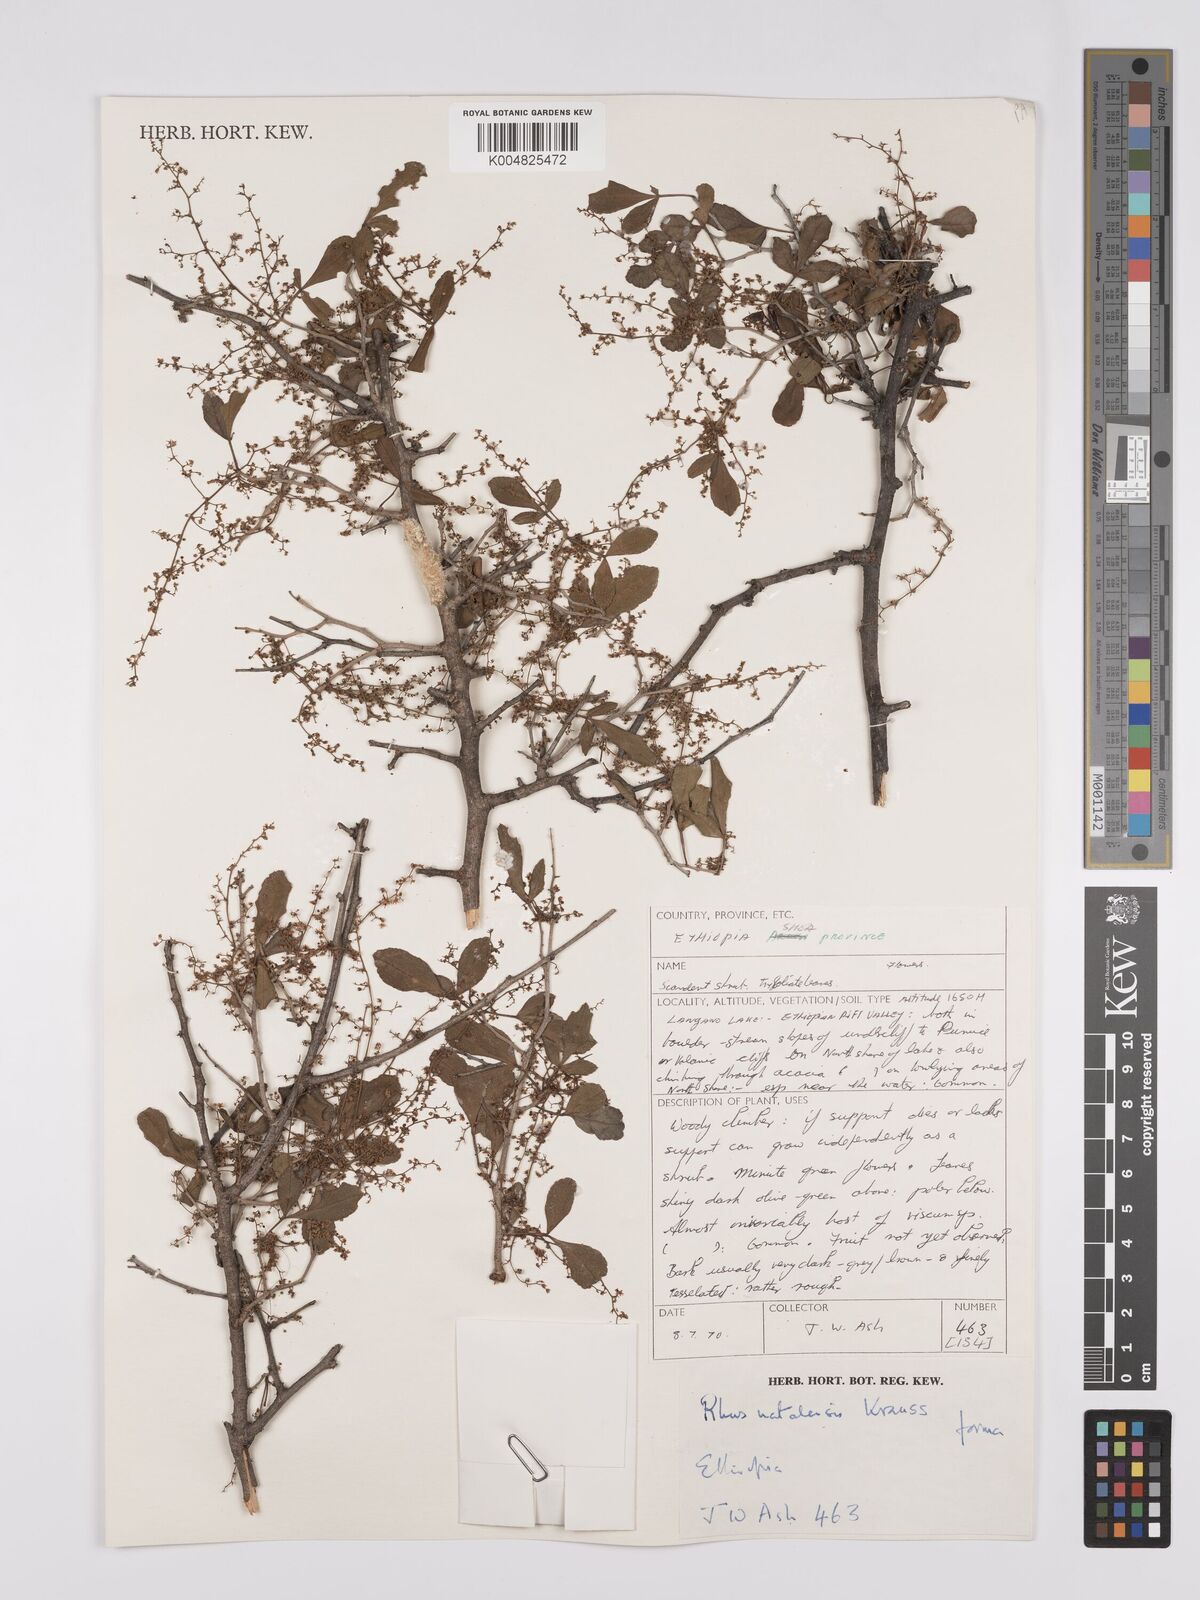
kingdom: Plantae
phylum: Tracheophyta
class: Magnoliopsida
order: Sapindales
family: Anacardiaceae
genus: Searsia
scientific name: Searsia natalensis
